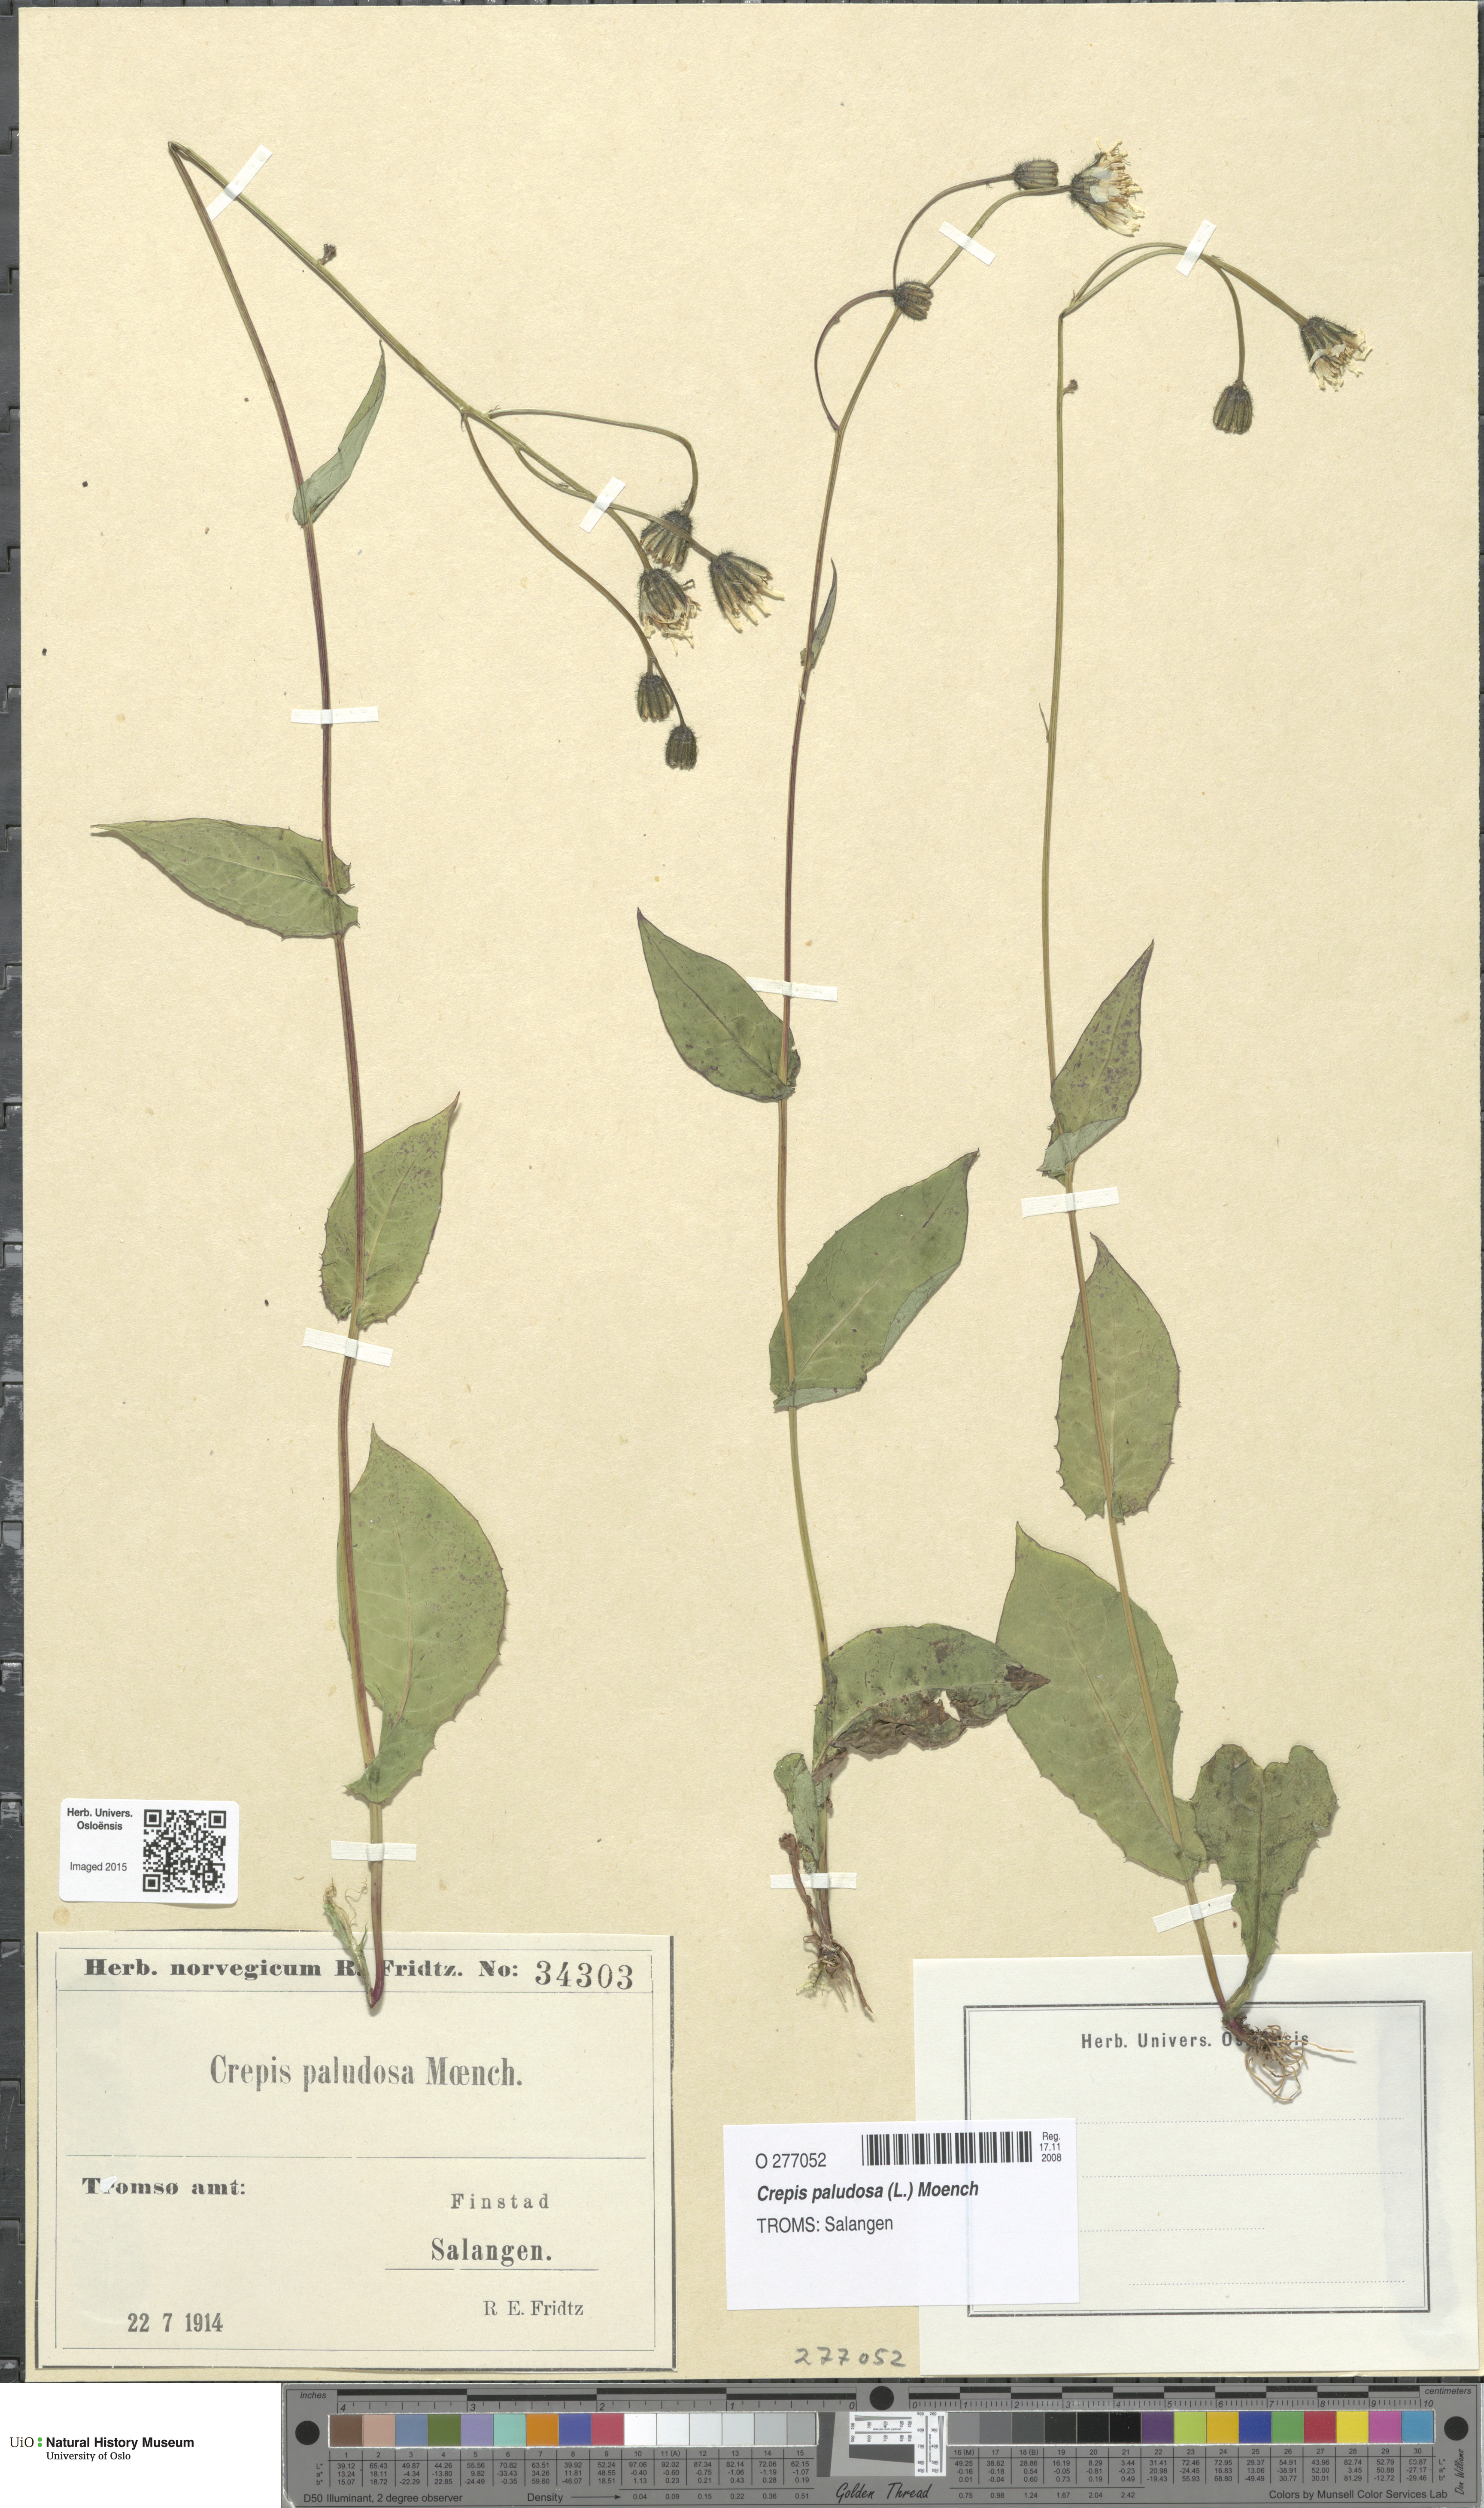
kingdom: Plantae
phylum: Tracheophyta
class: Magnoliopsida
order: Asterales
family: Asteraceae
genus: Crepis
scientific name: Crepis paludosa
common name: Marsh hawk's-beard
